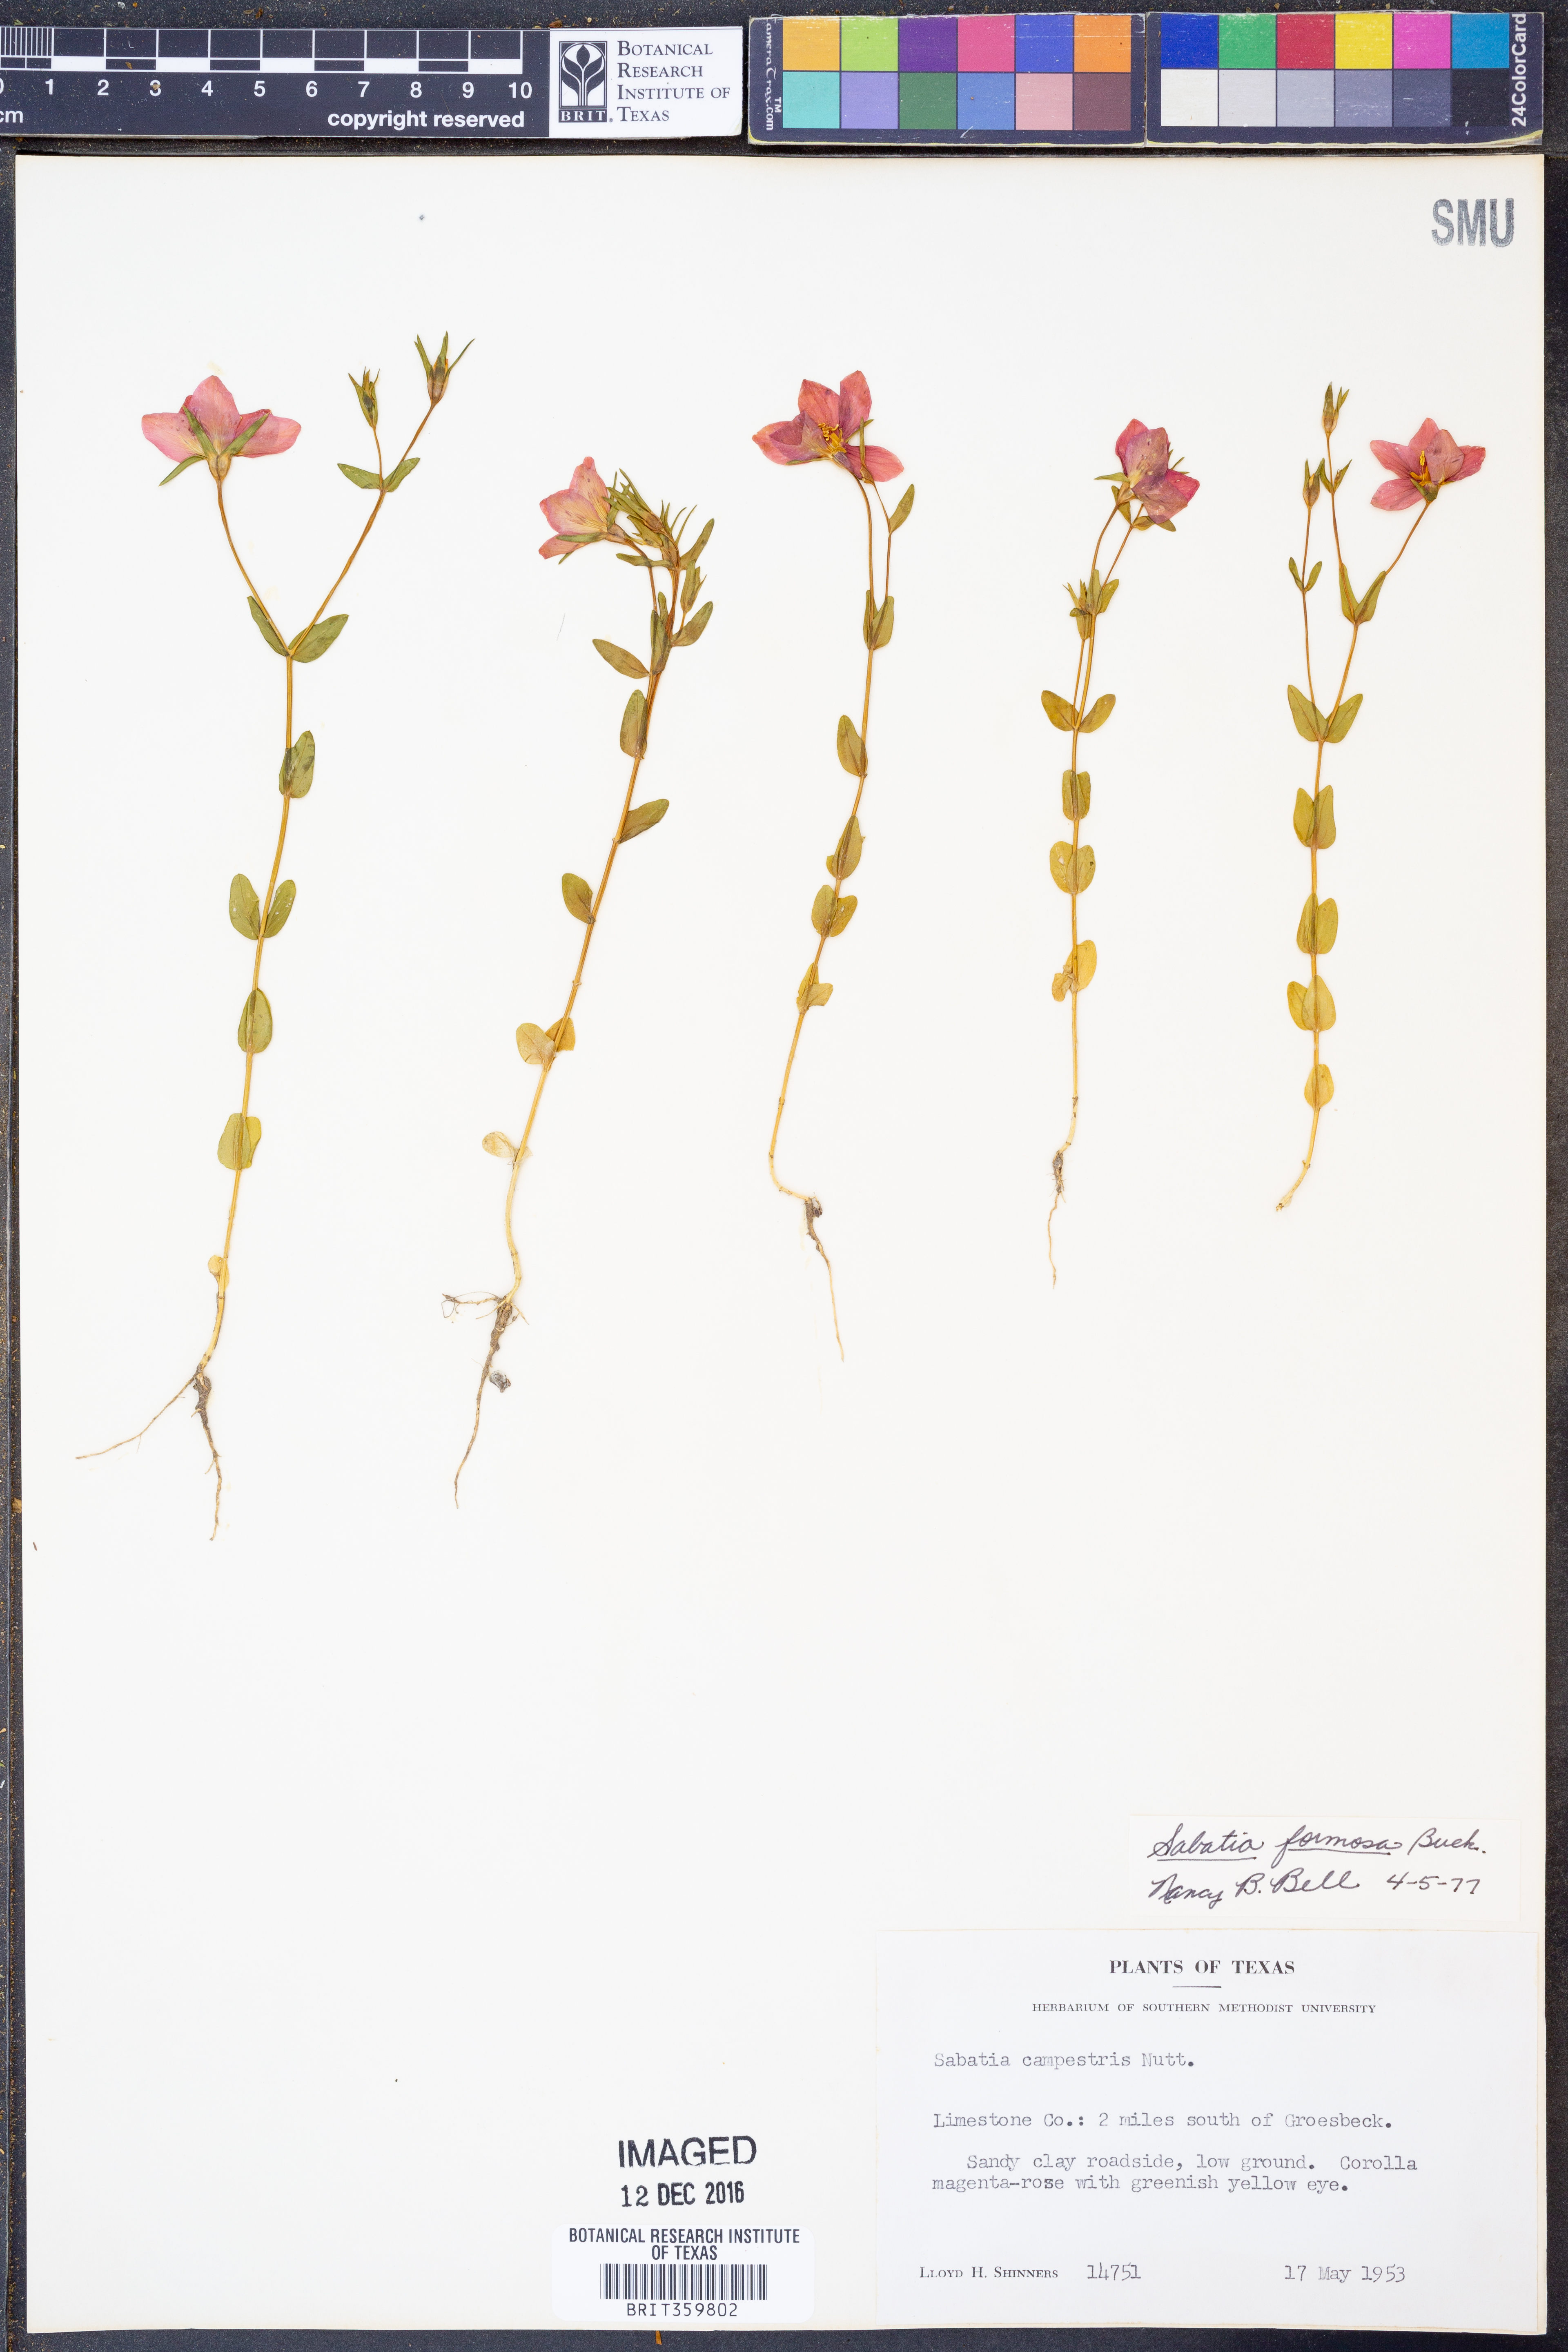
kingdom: Plantae
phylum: Tracheophyta
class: Magnoliopsida
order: Gentianales
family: Gentianaceae
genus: Sabatia
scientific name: Sabatia formosa
